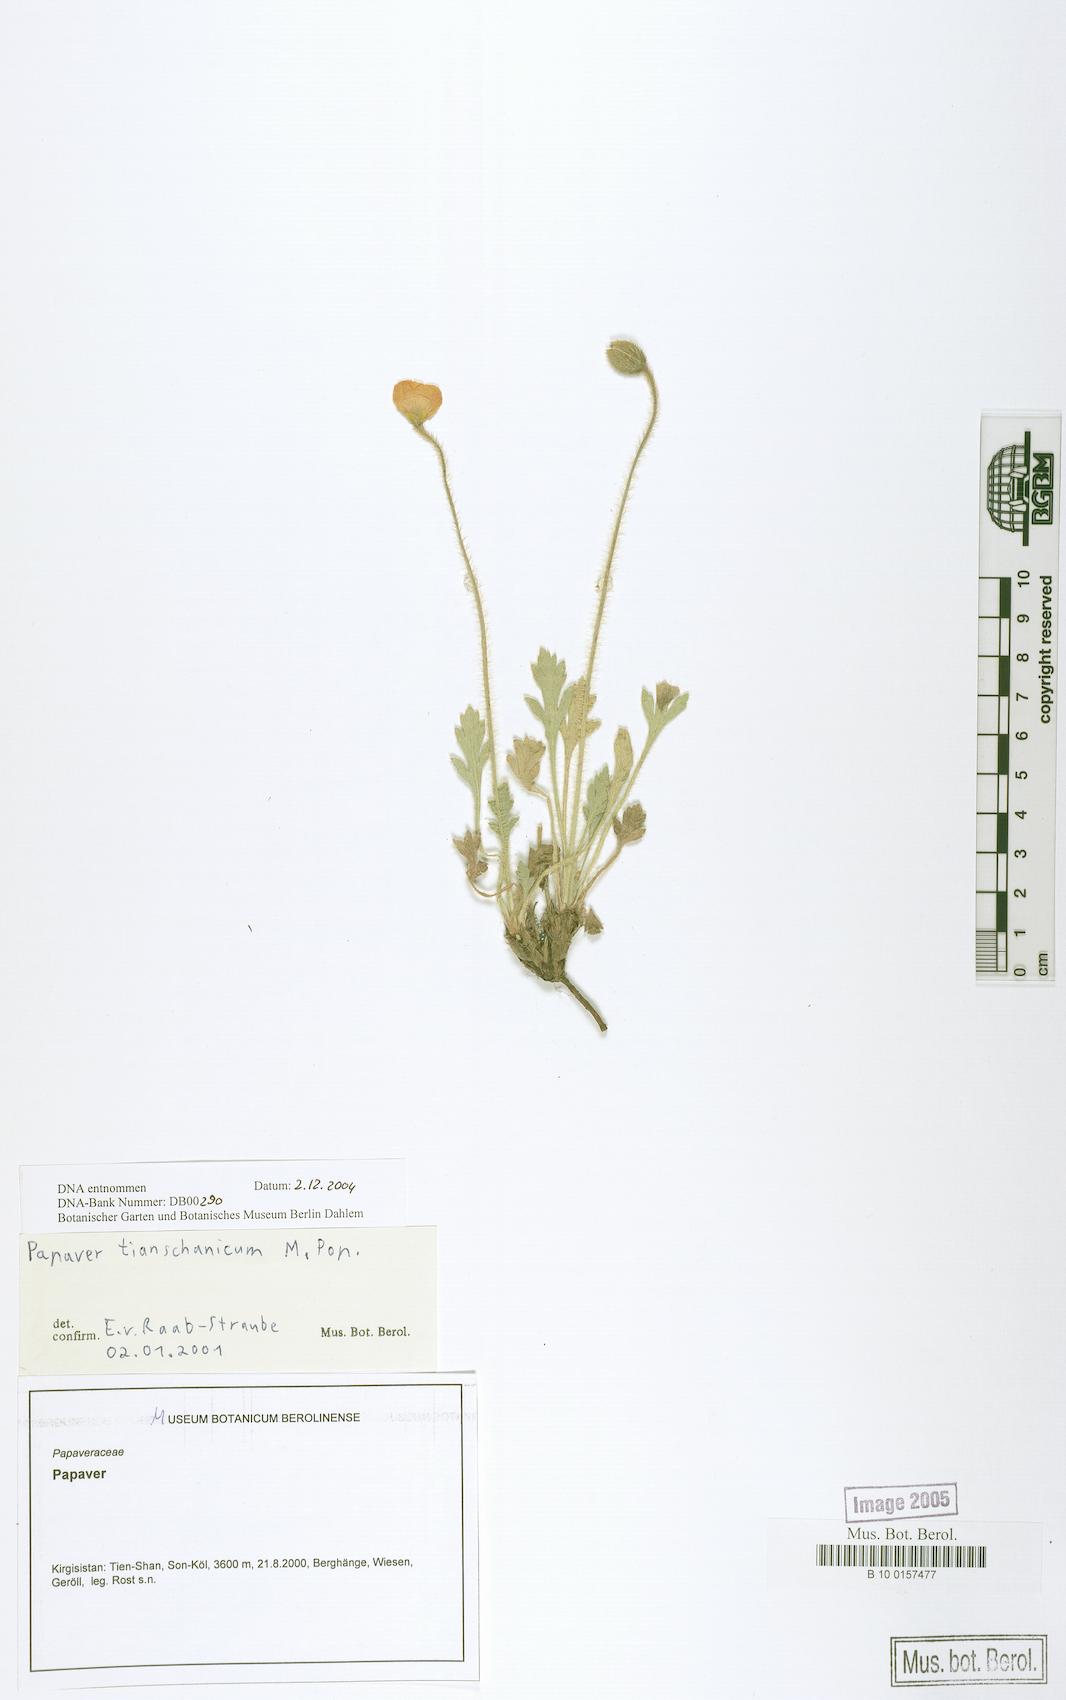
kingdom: Plantae
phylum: Tracheophyta
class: Magnoliopsida
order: Ranunculales
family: Papaveraceae
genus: Papaver
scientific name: Papaver canescens
